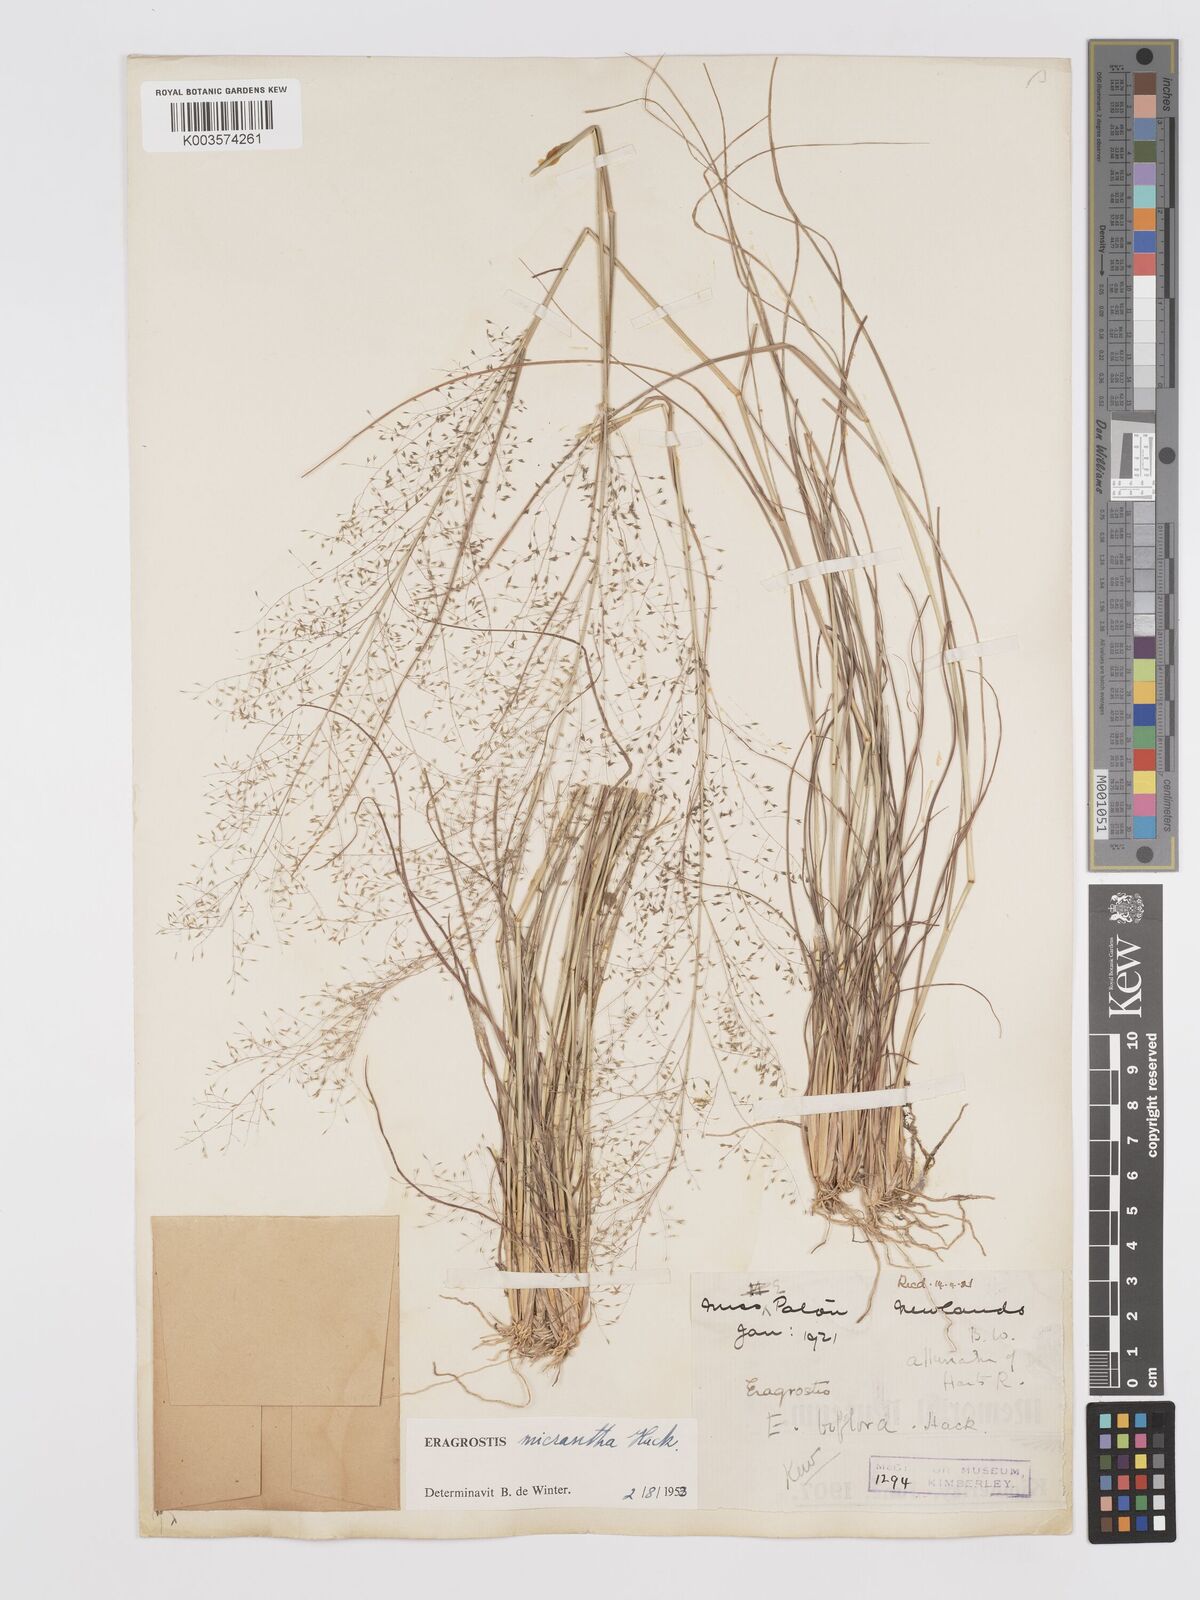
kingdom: Plantae
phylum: Tracheophyta
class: Liliopsida
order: Poales
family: Poaceae
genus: Eragrostis
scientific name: Eragrostis micrantha
